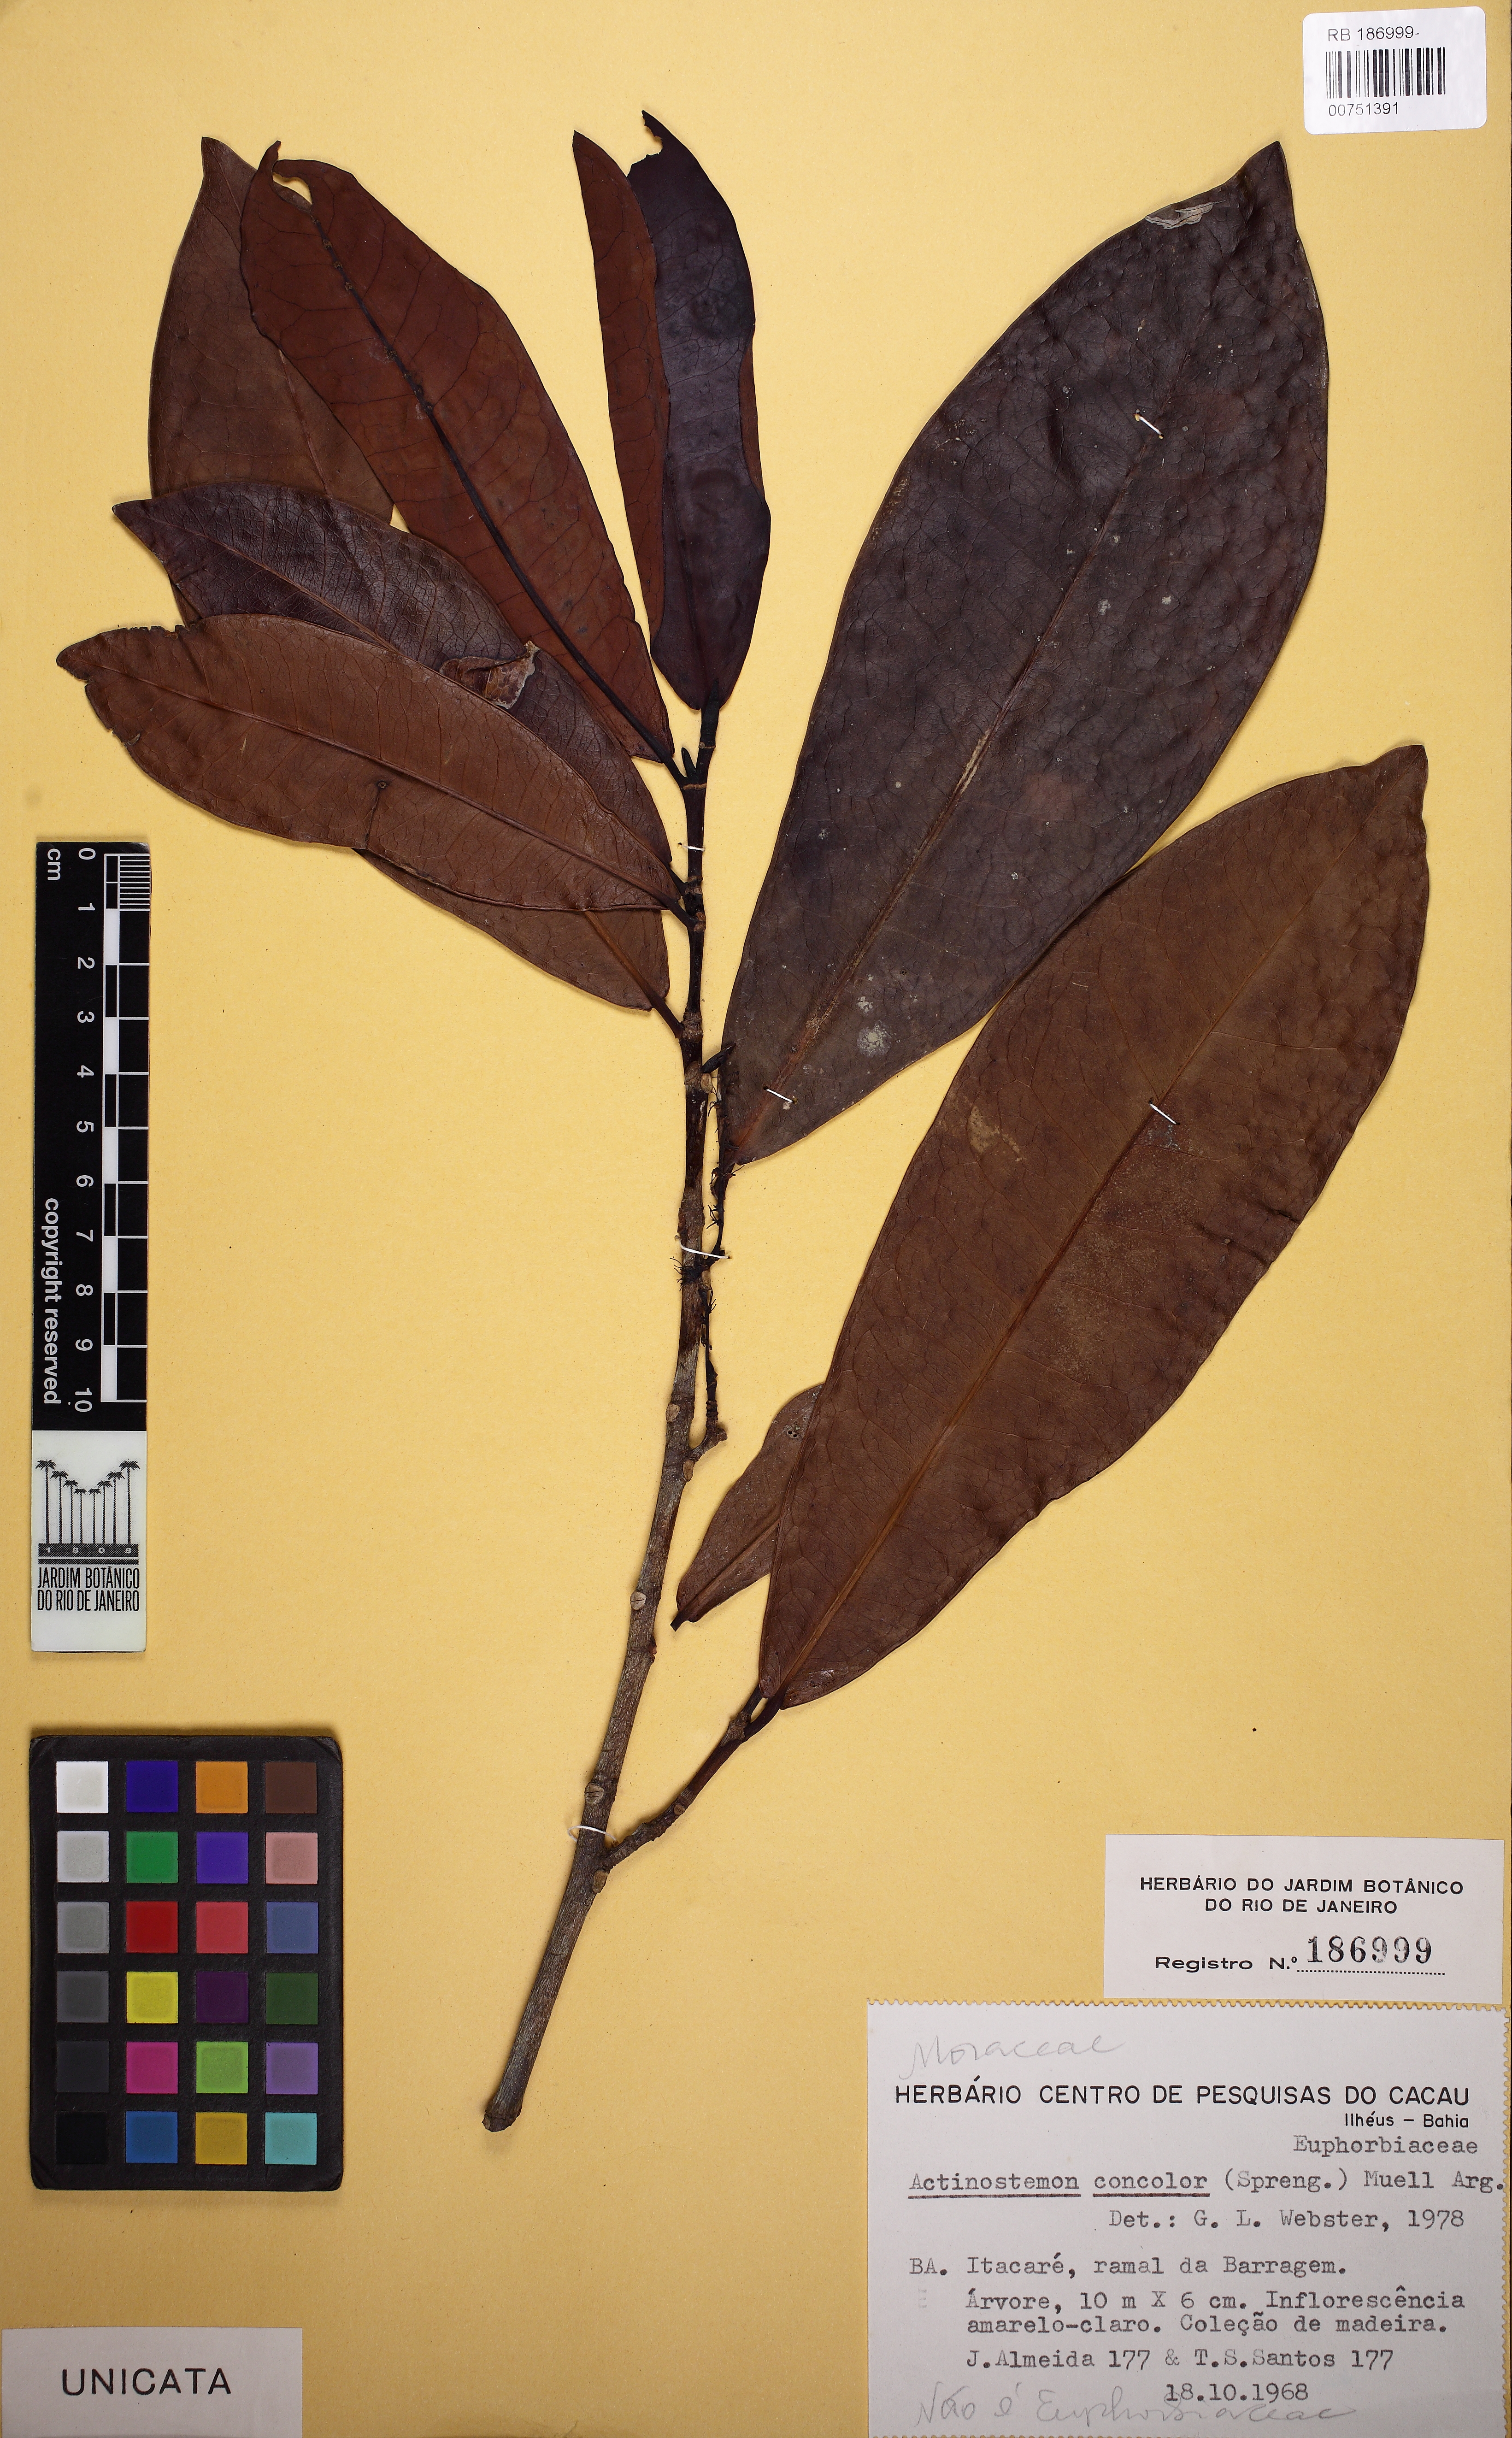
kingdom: Plantae
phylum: Tracheophyta
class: Magnoliopsida
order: Rosales
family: Moraceae
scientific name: Moraceae
